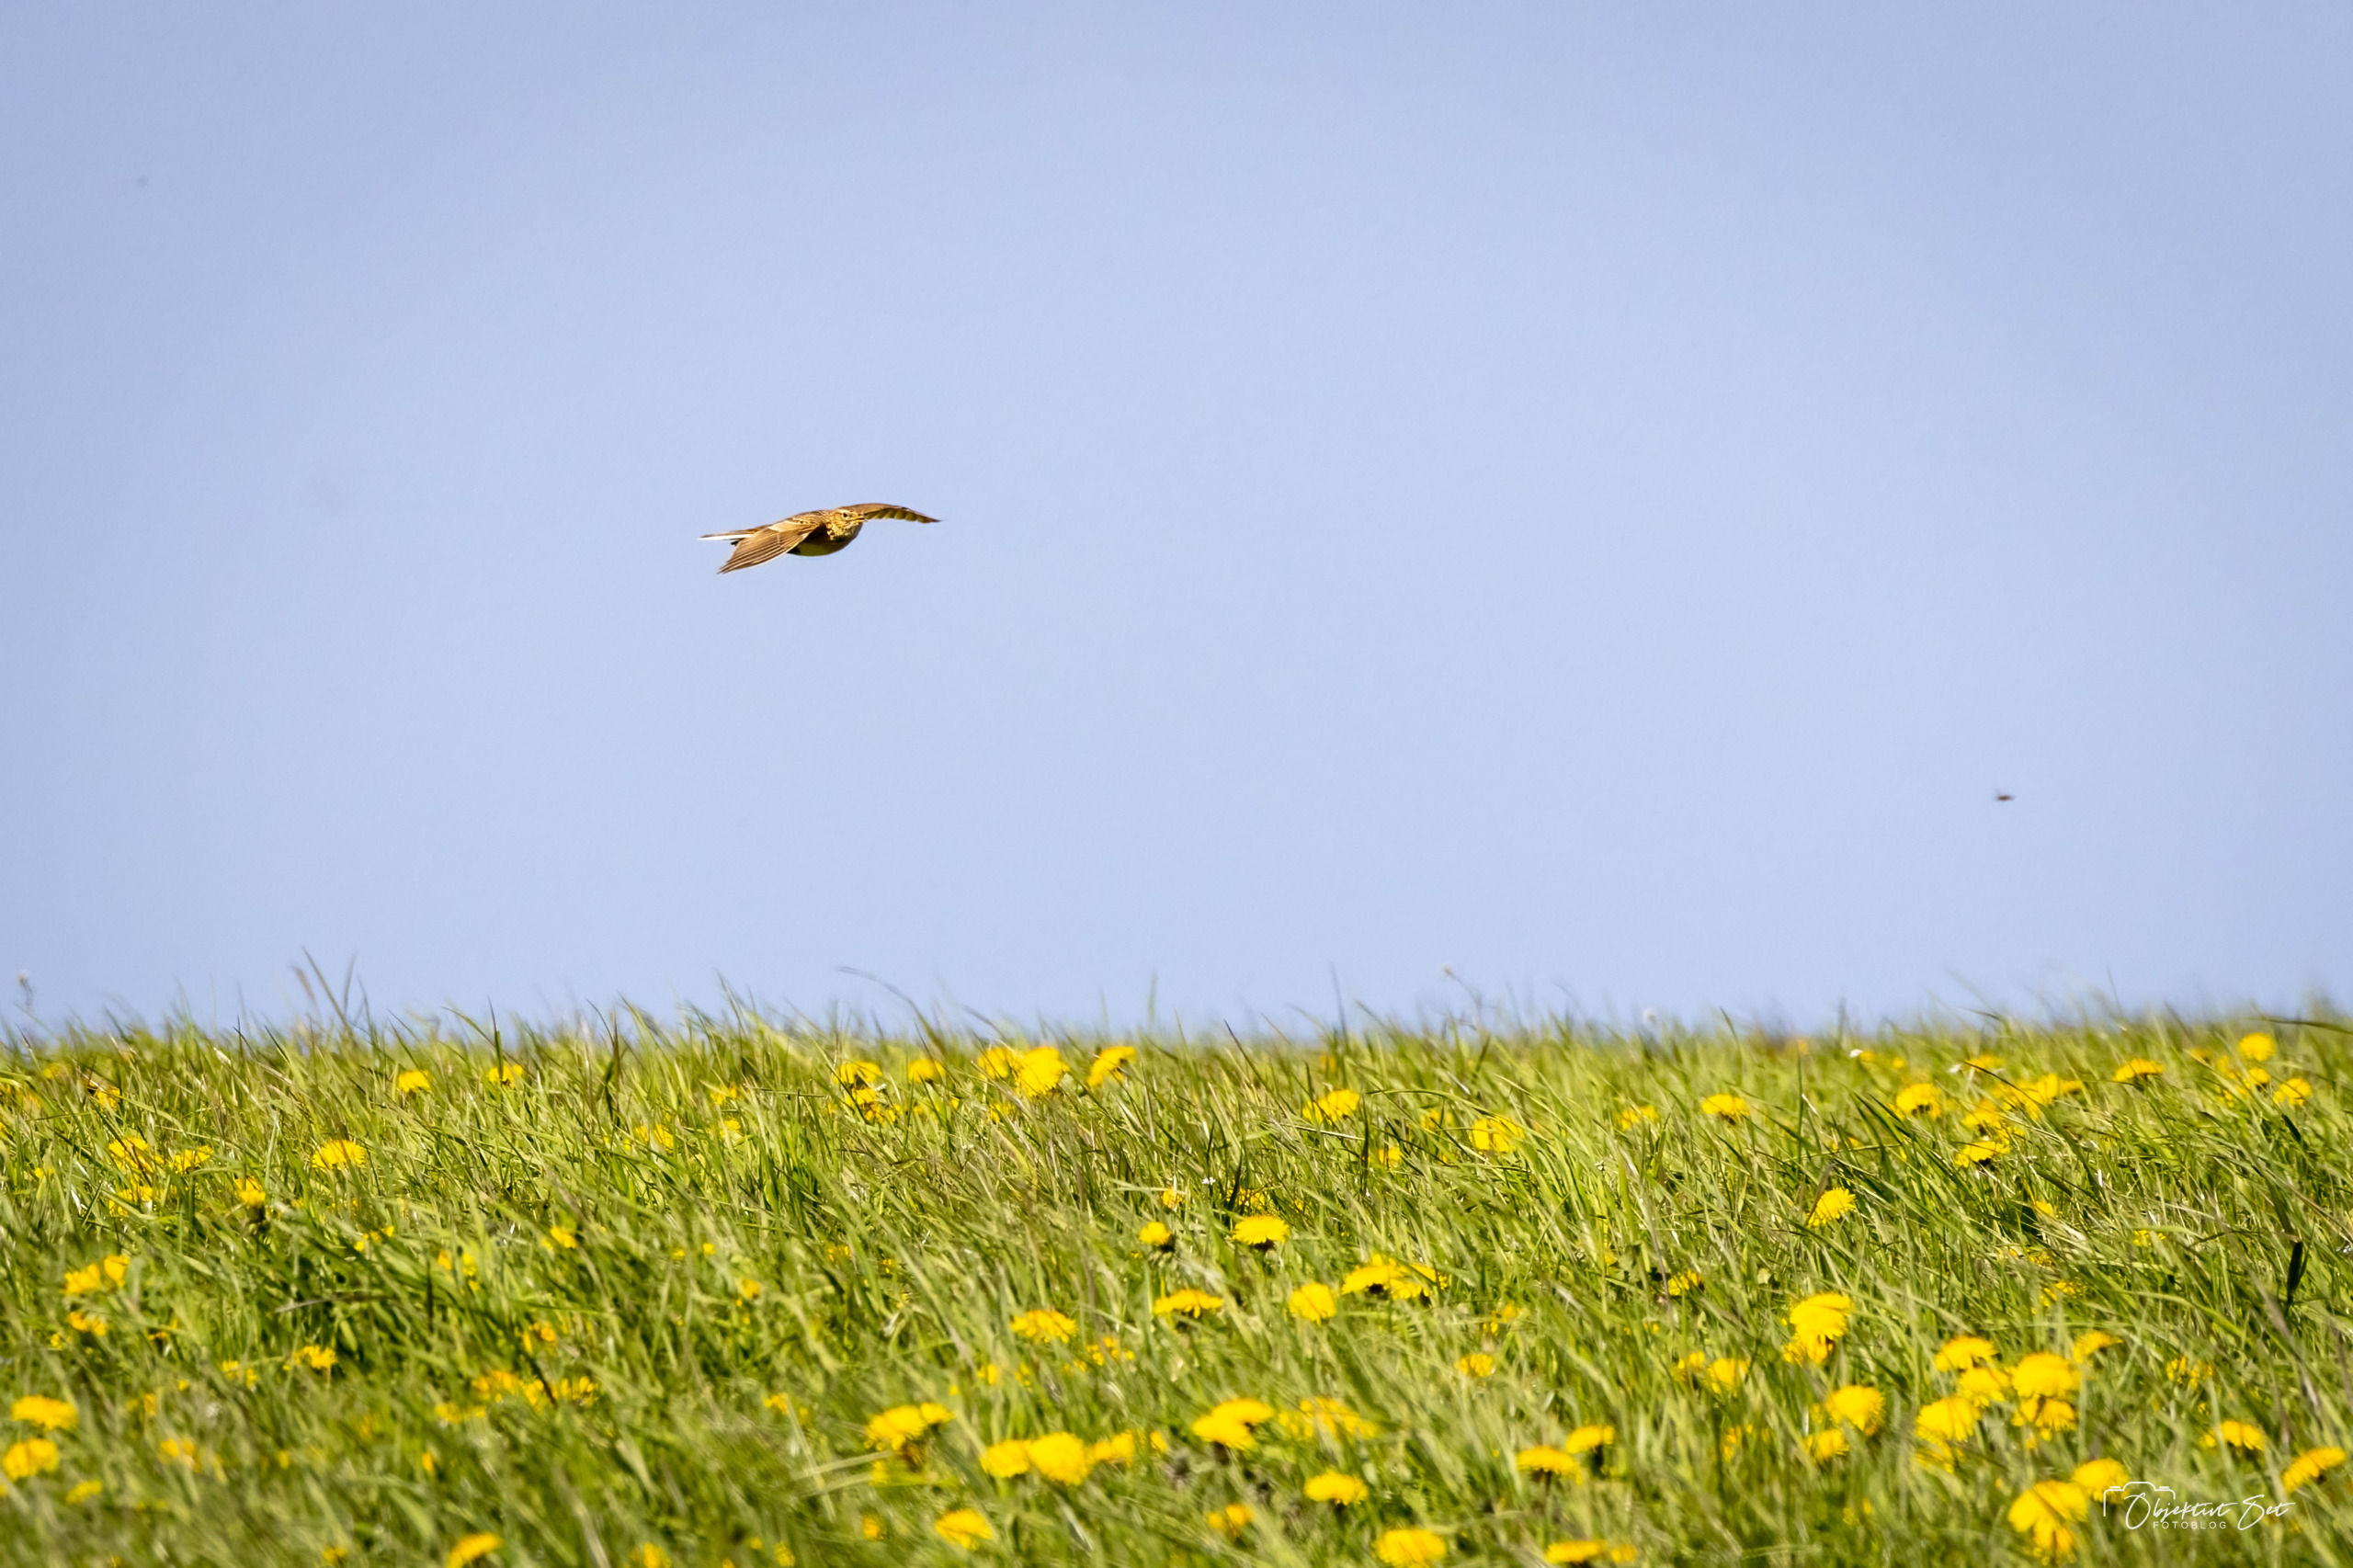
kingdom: Animalia
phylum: Chordata
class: Aves
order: Passeriformes
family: Alaudidae
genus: Alauda
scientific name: Alauda arvensis
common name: Sanglærke
